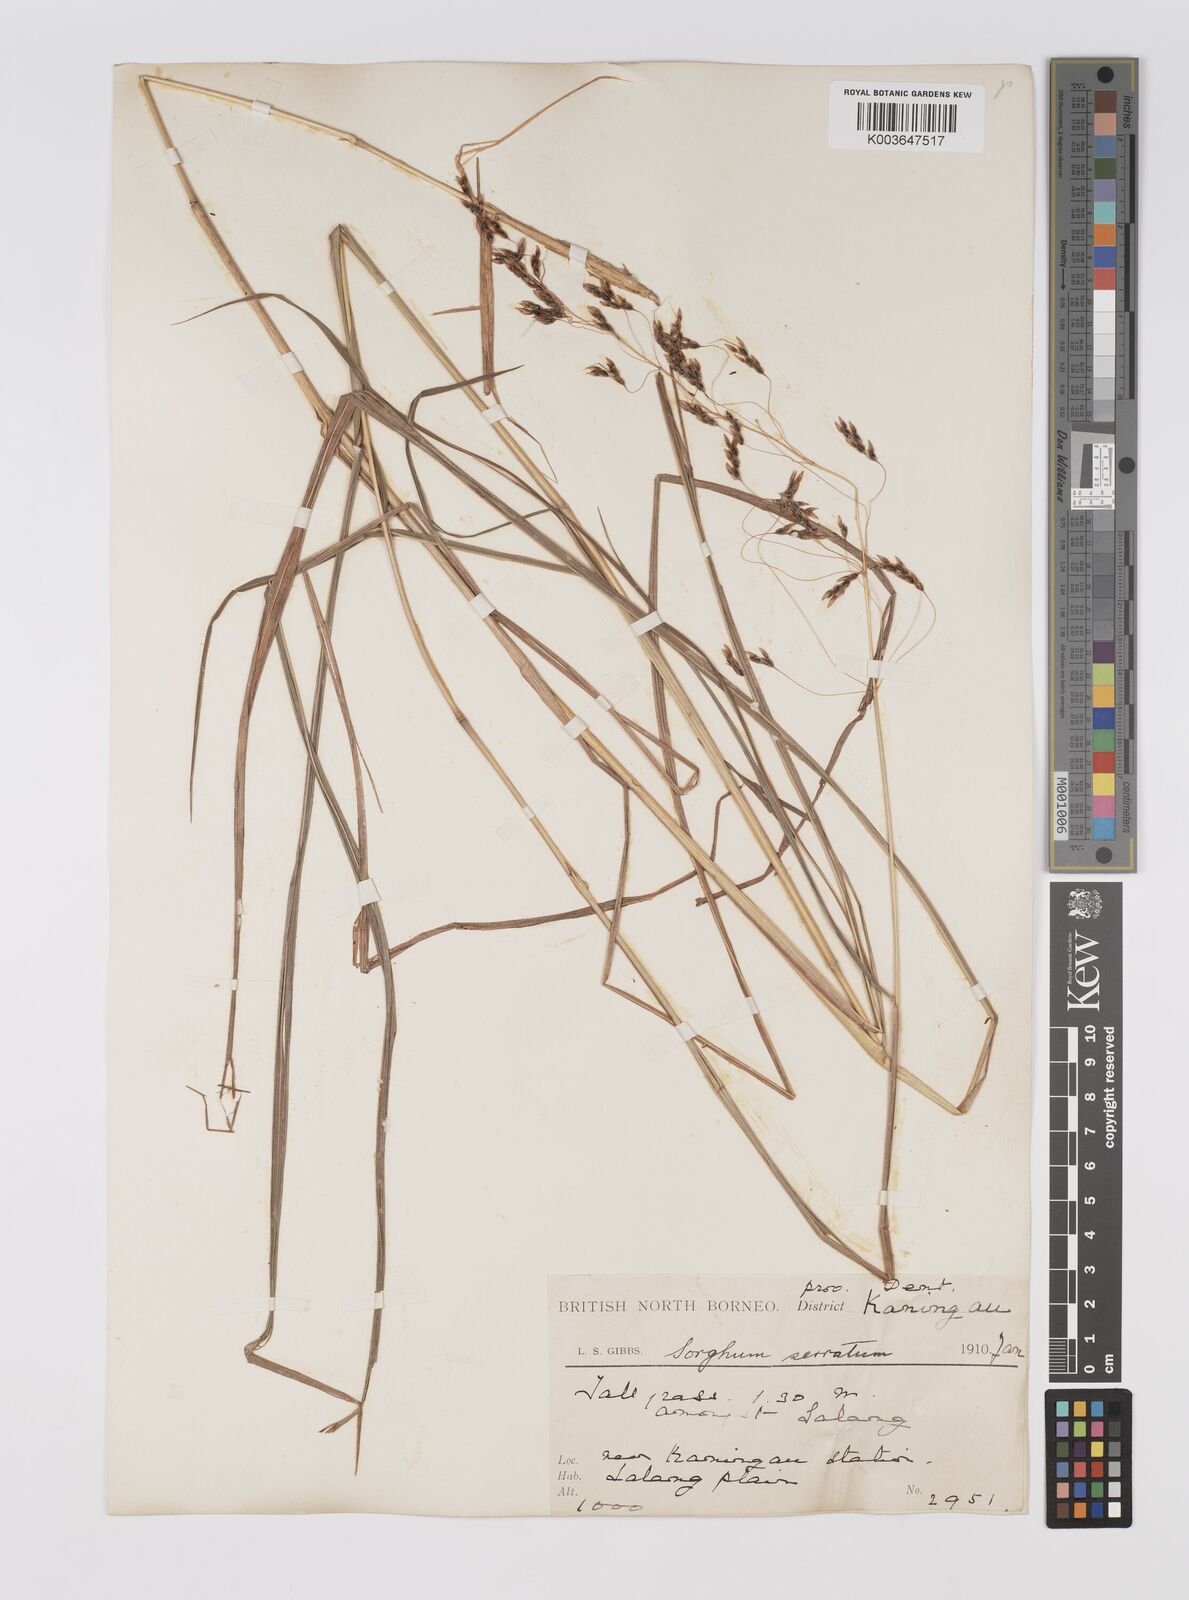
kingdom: Plantae
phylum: Tracheophyta
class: Liliopsida
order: Poales
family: Poaceae
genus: Sorghum
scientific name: Sorghum nitidum
